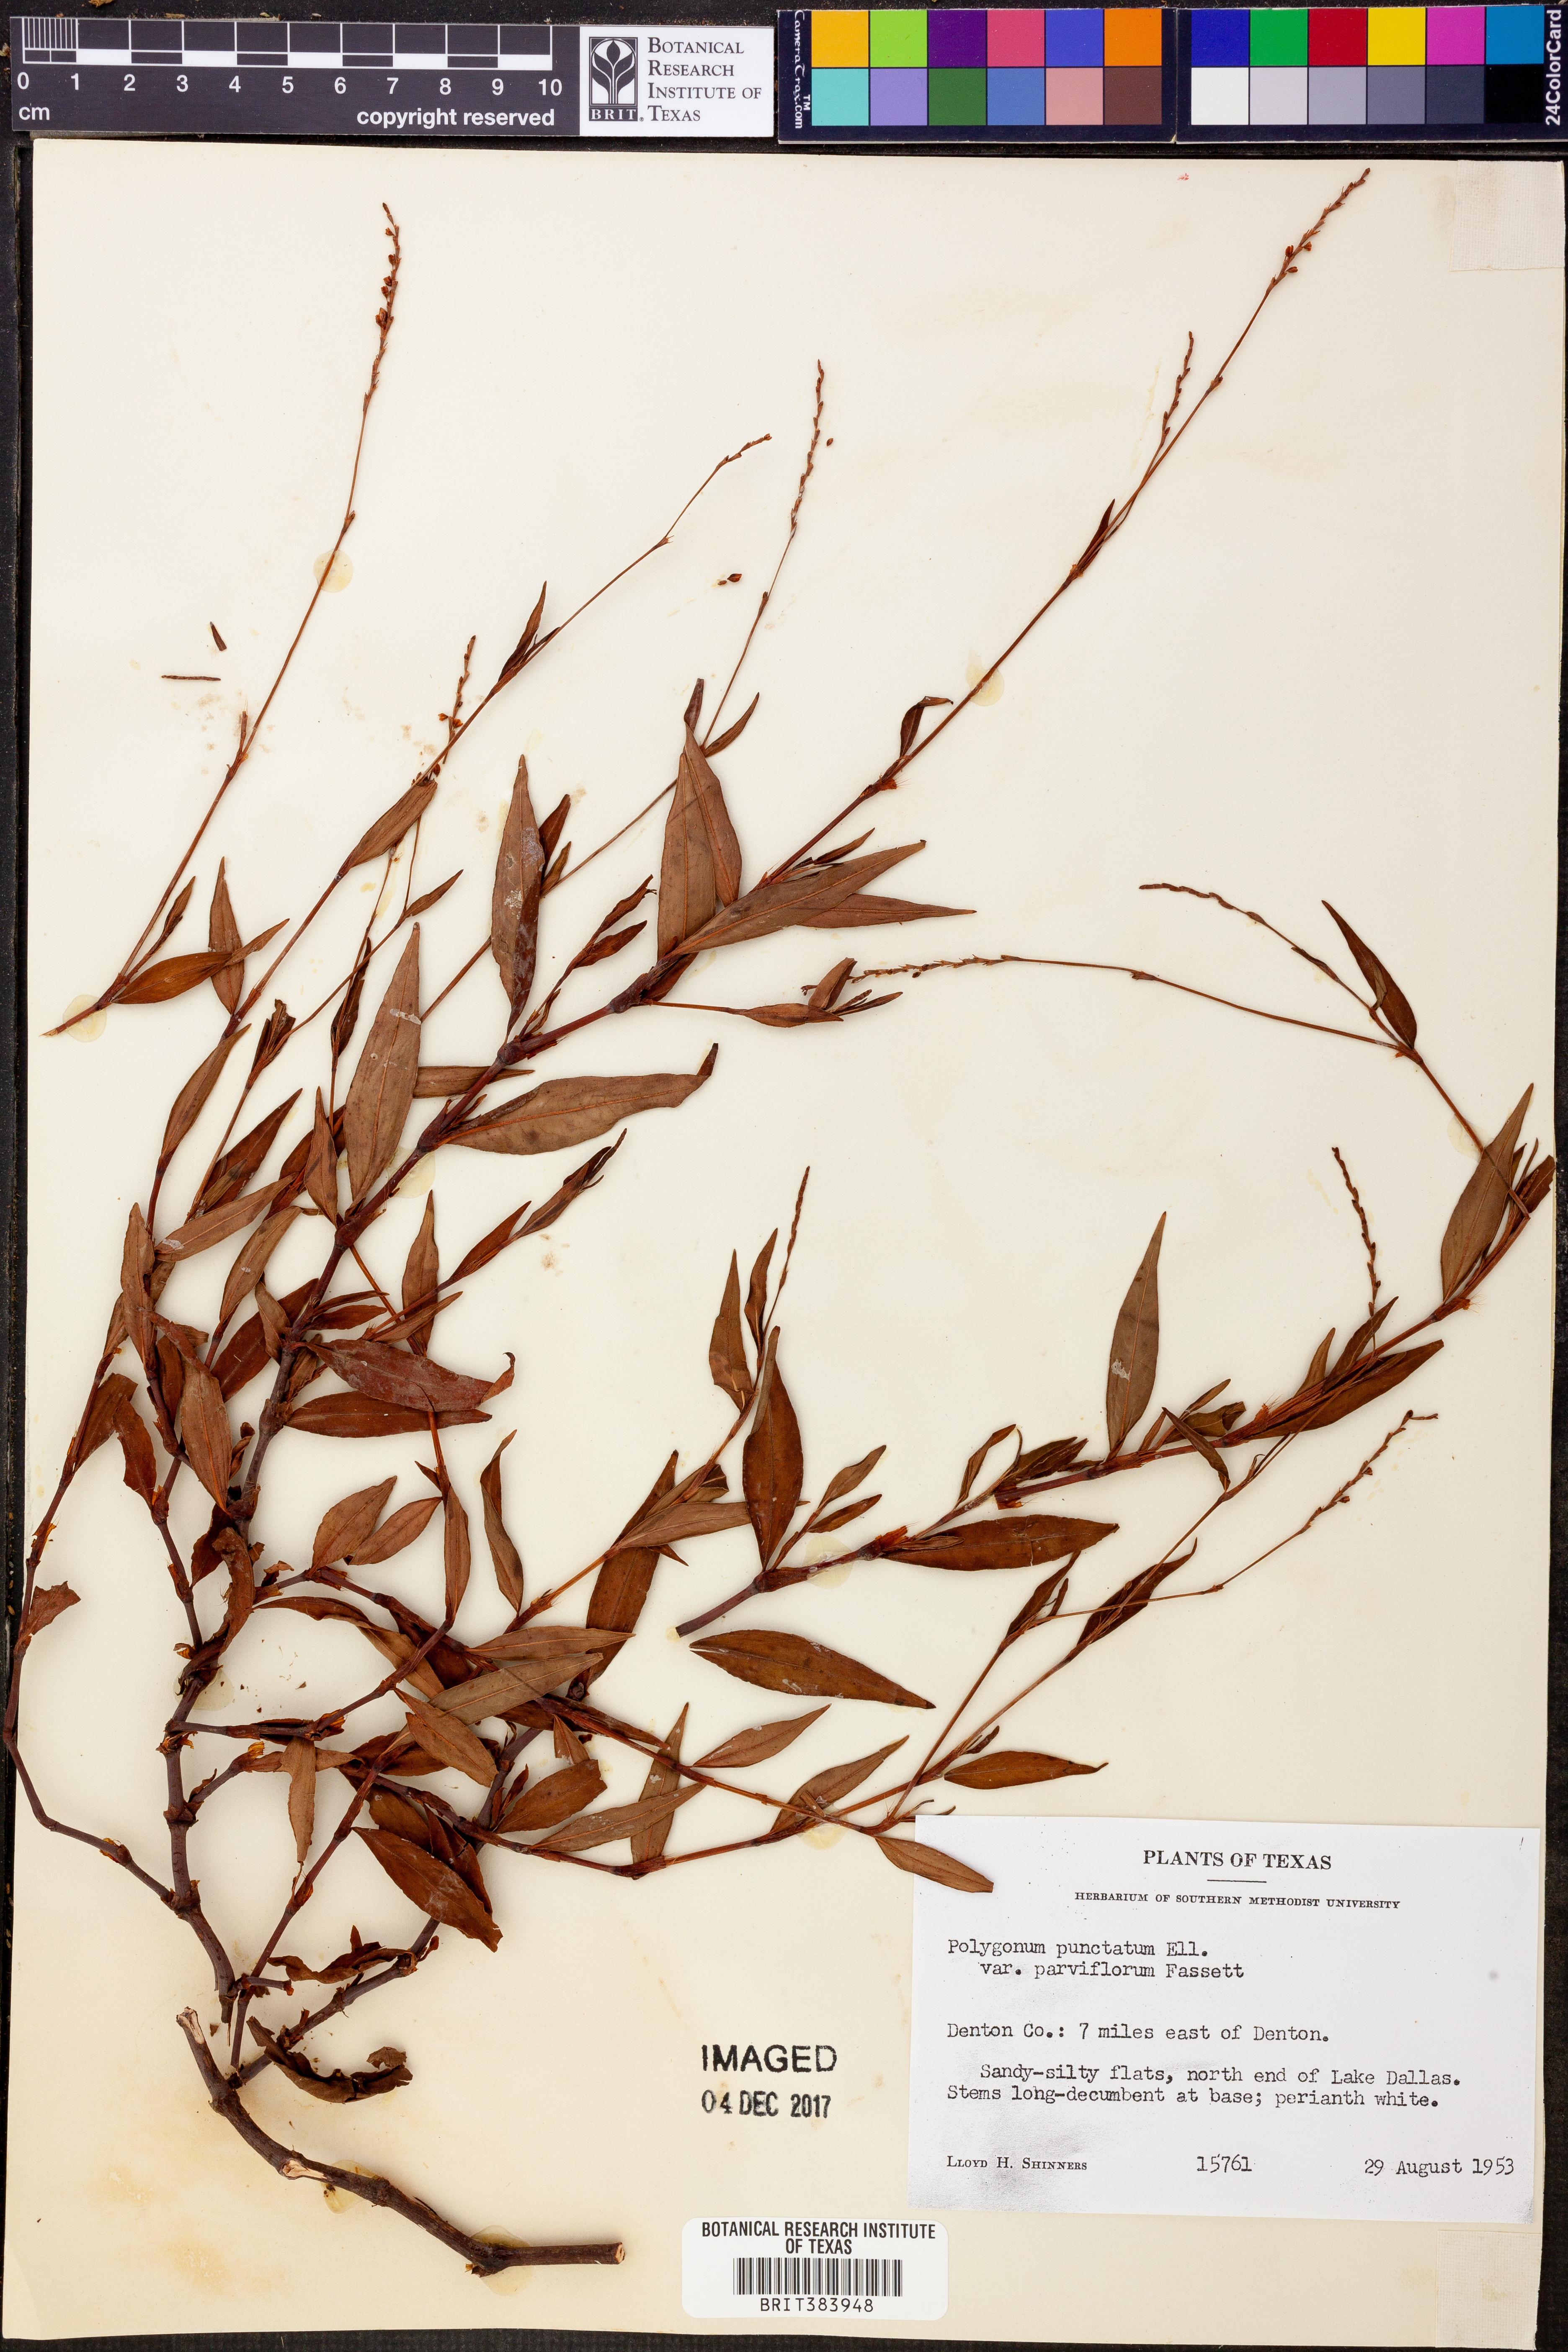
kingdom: Plantae
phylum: Tracheophyta
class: Magnoliopsida
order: Caryophyllales
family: Polygonaceae
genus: Persicaria
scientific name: Persicaria punctata
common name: Dotted smartweed
